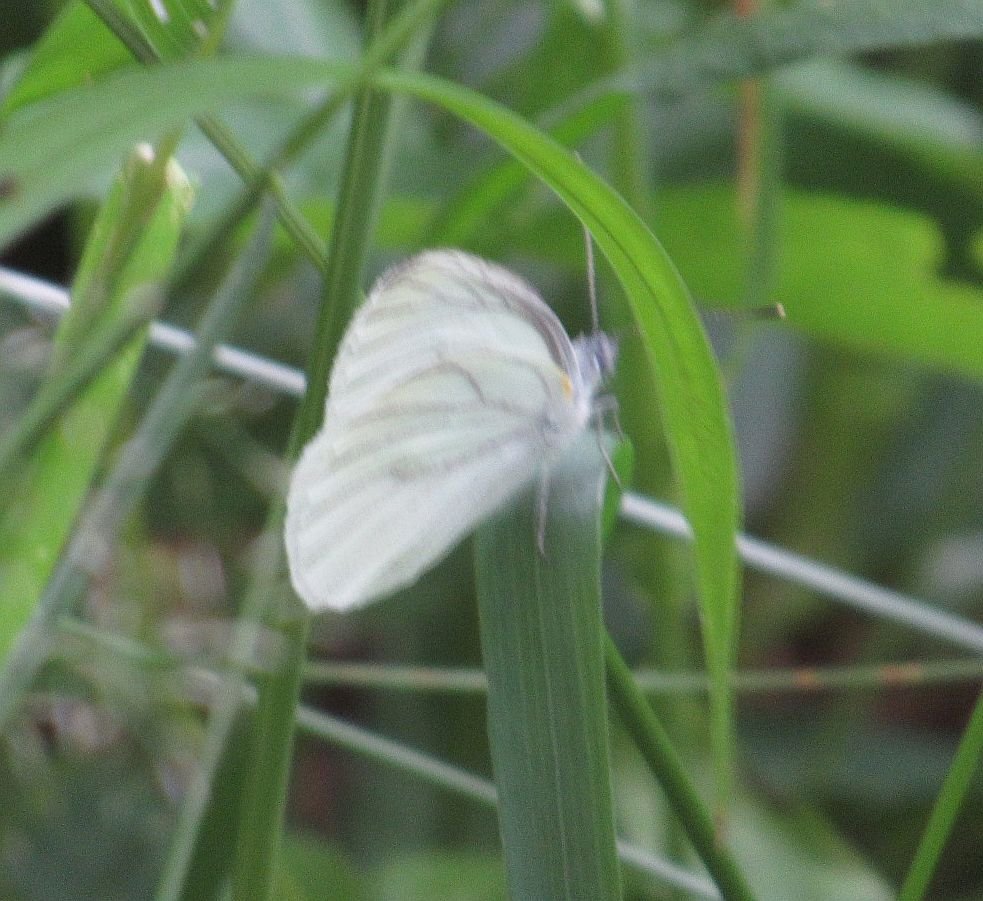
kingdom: Animalia
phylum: Arthropoda
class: Insecta
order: Lepidoptera
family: Pieridae
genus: Pieris
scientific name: Pieris oleracea
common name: Mustard White
